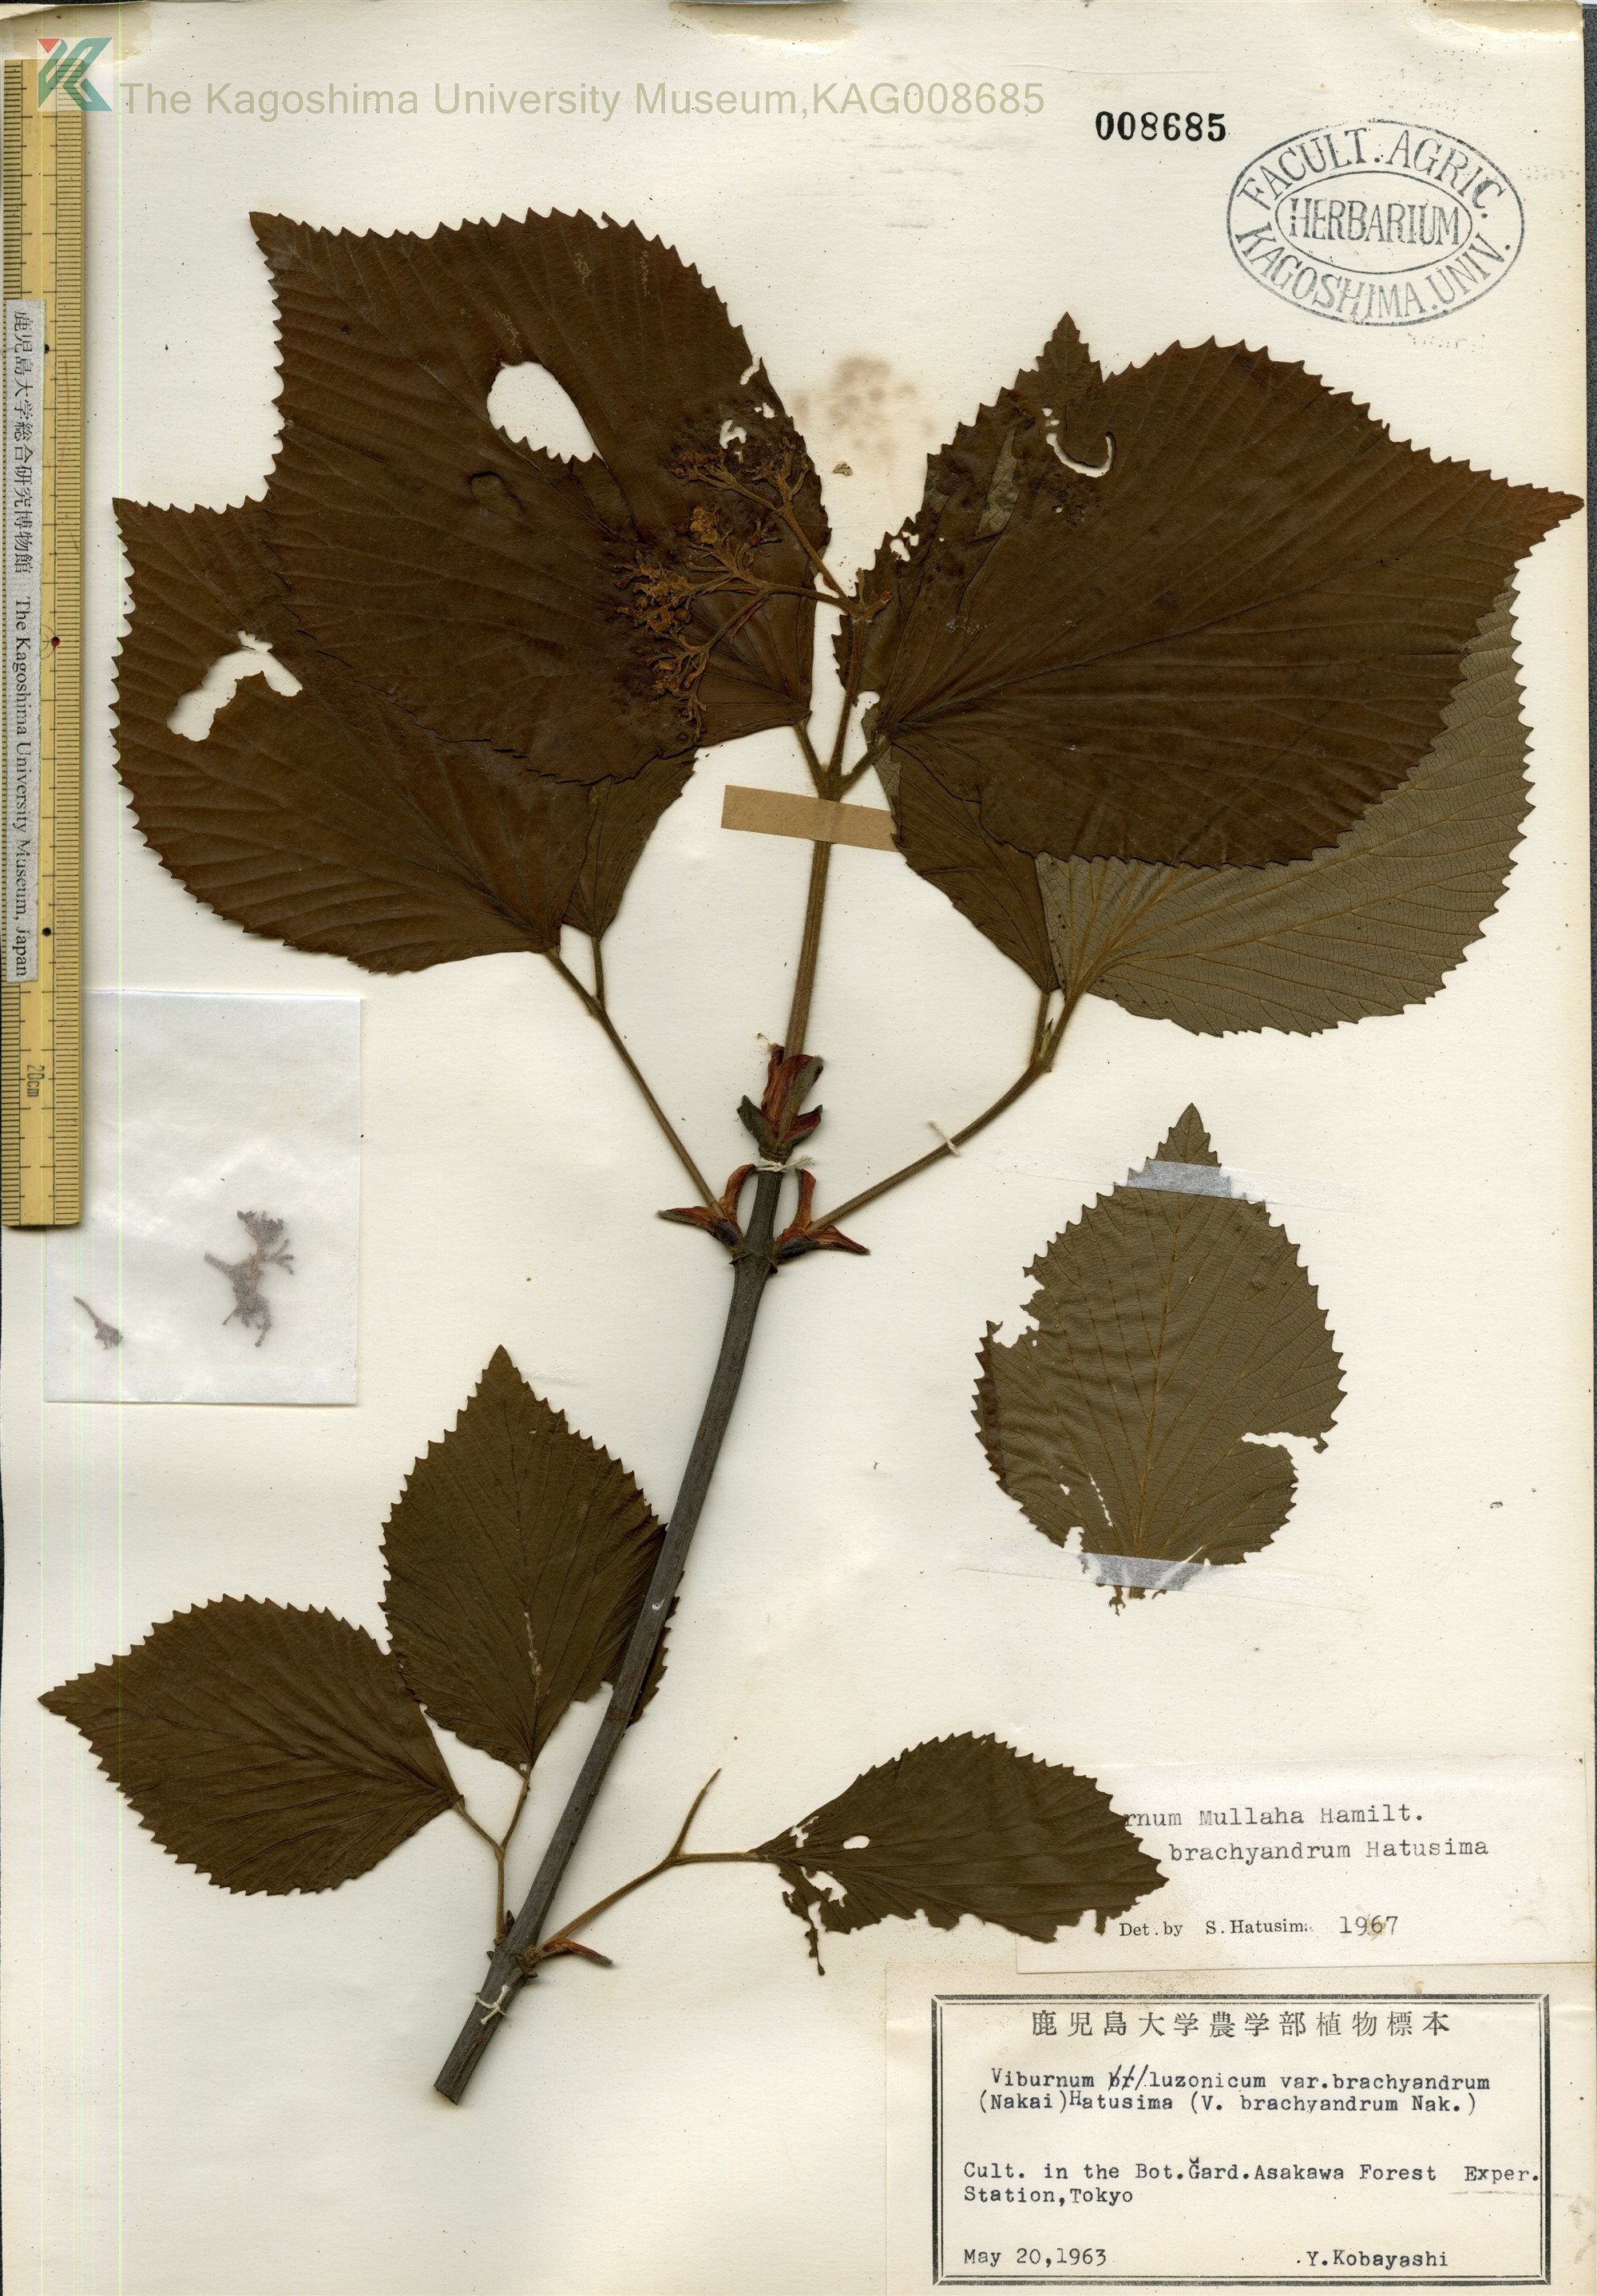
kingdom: Plantae
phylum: Tracheophyta
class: Magnoliopsida
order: Dipsacales
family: Viburnaceae
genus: Viburnum
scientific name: Viburnum mullaha
